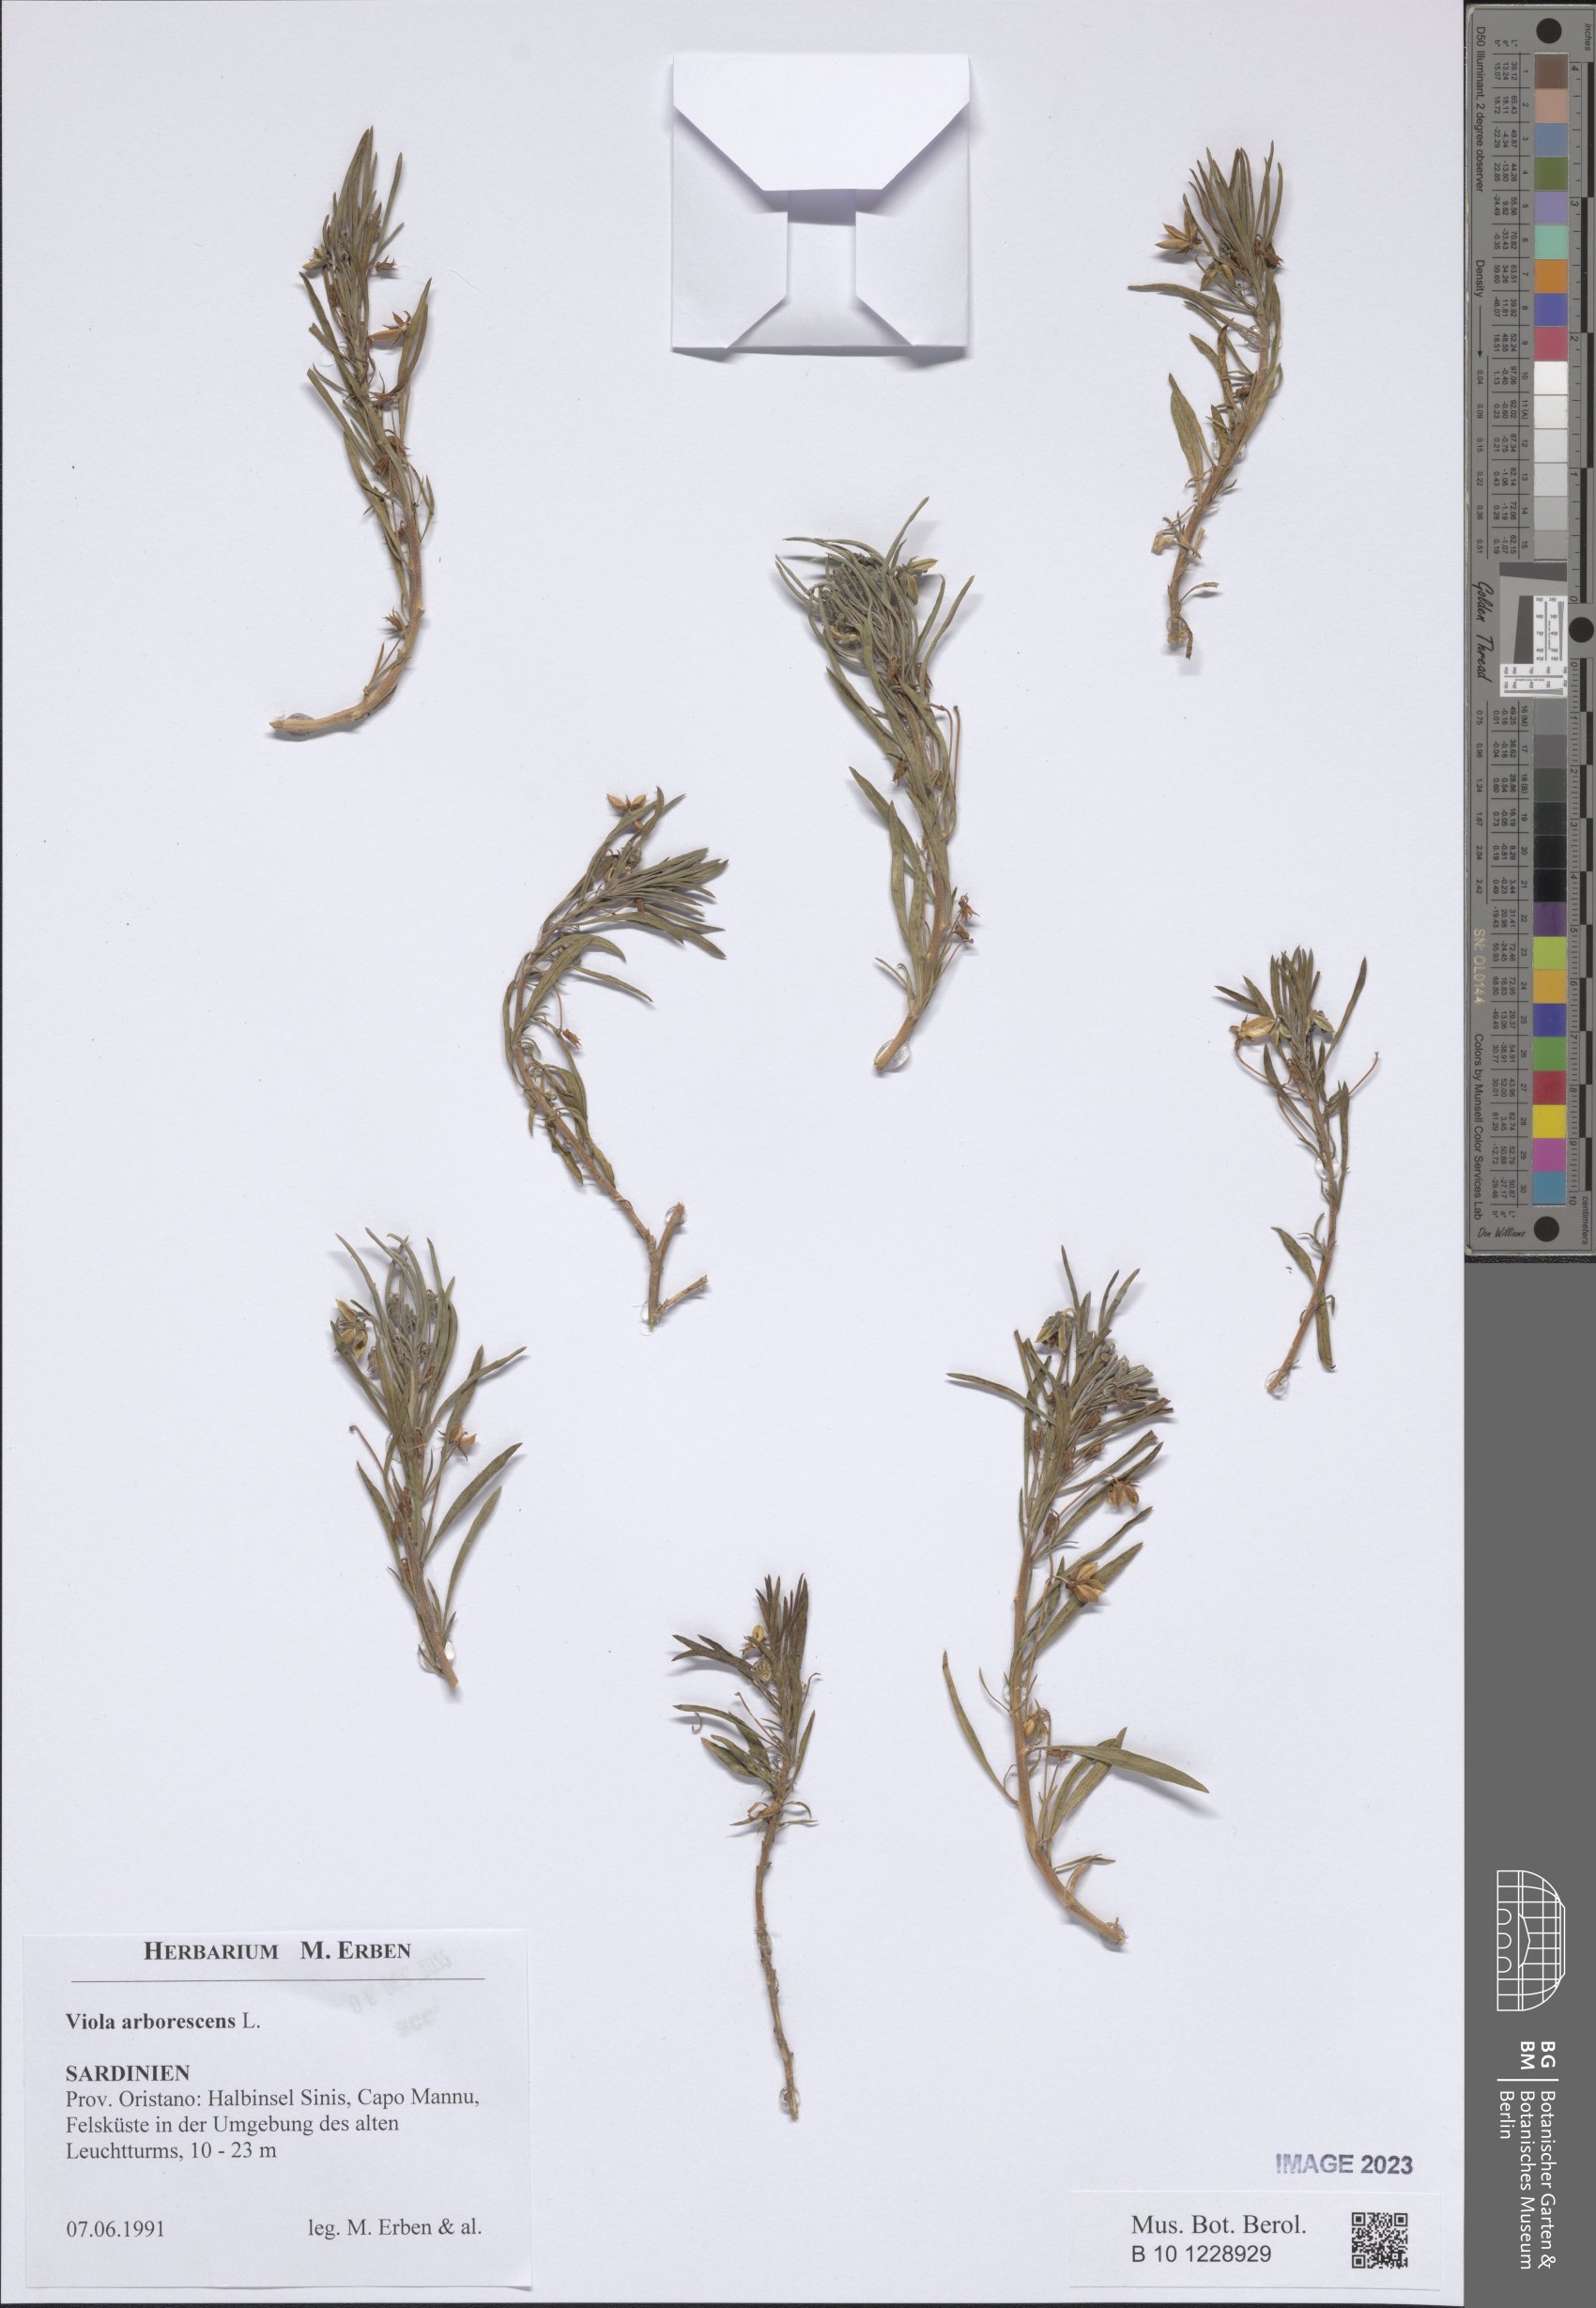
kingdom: Plantae
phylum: Tracheophyta
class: Magnoliopsida
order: Malpighiales
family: Violaceae
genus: Viola
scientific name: Viola arborescens
